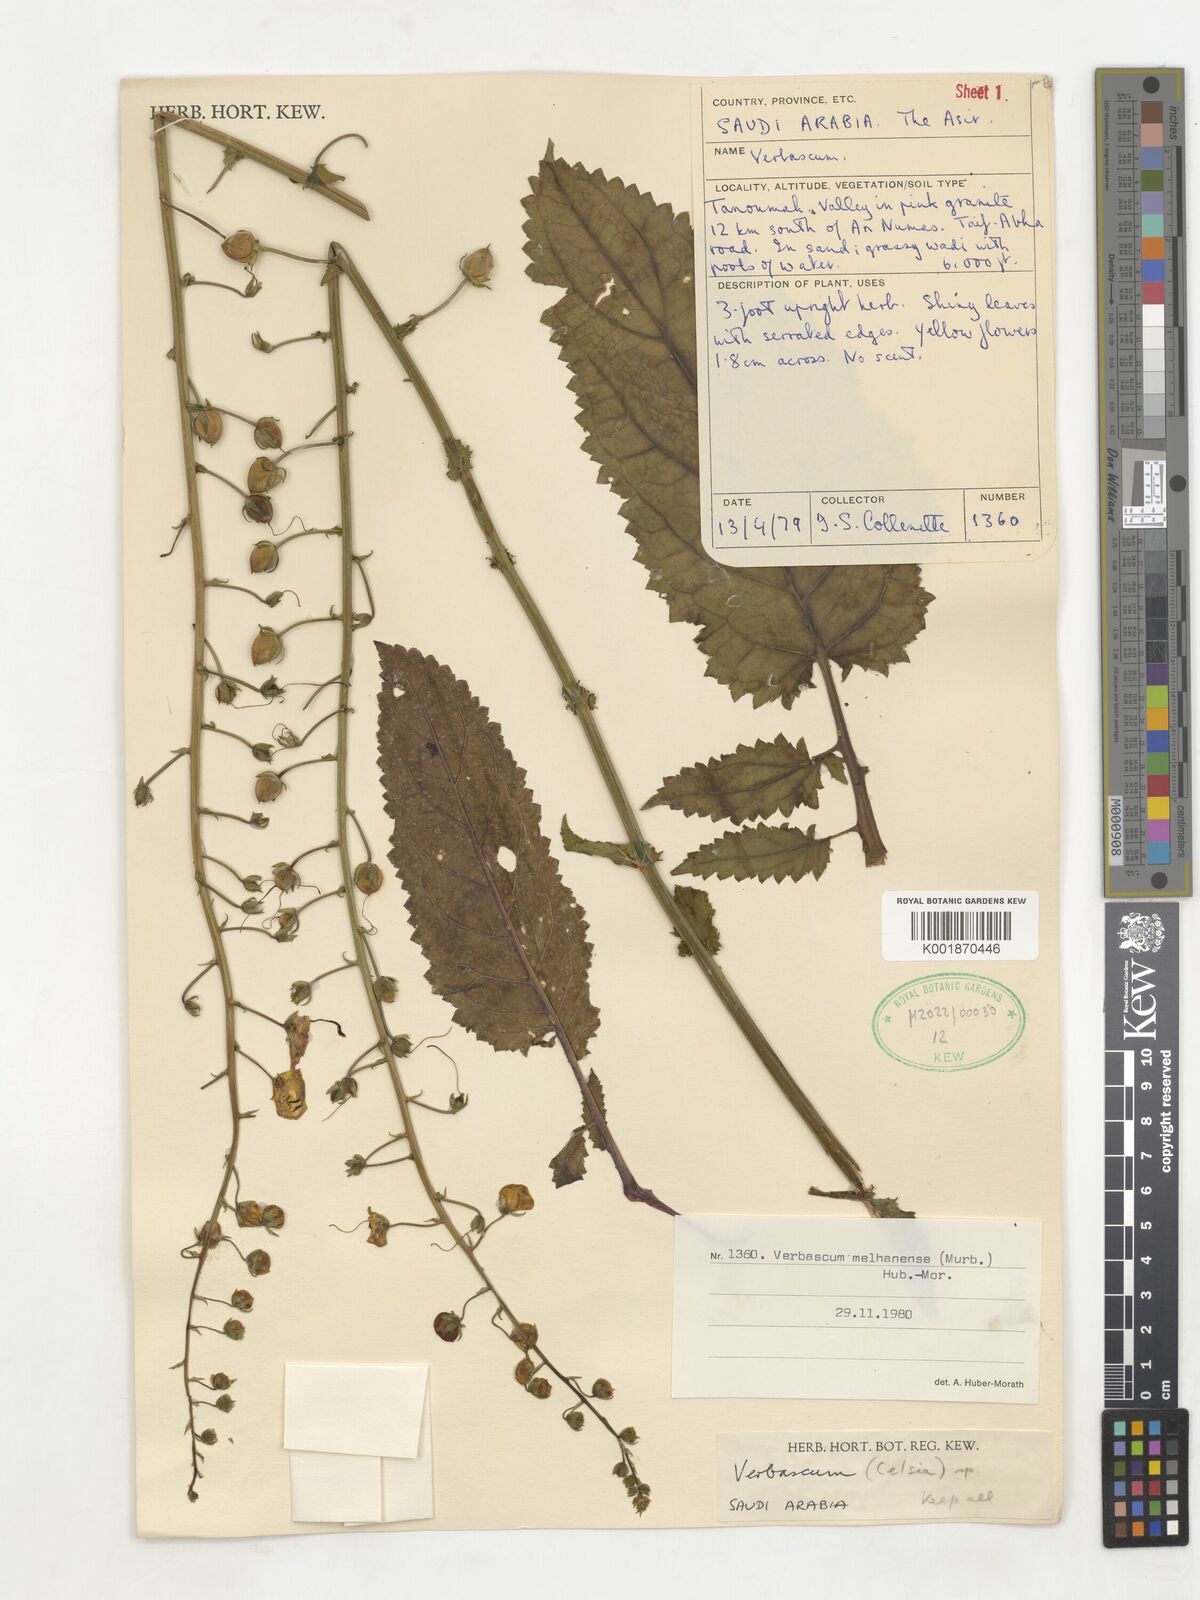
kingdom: Plantae
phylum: Tracheophyta
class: Magnoliopsida
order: Lamiales
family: Scrophulariaceae
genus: Verbascum
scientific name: Verbascum
